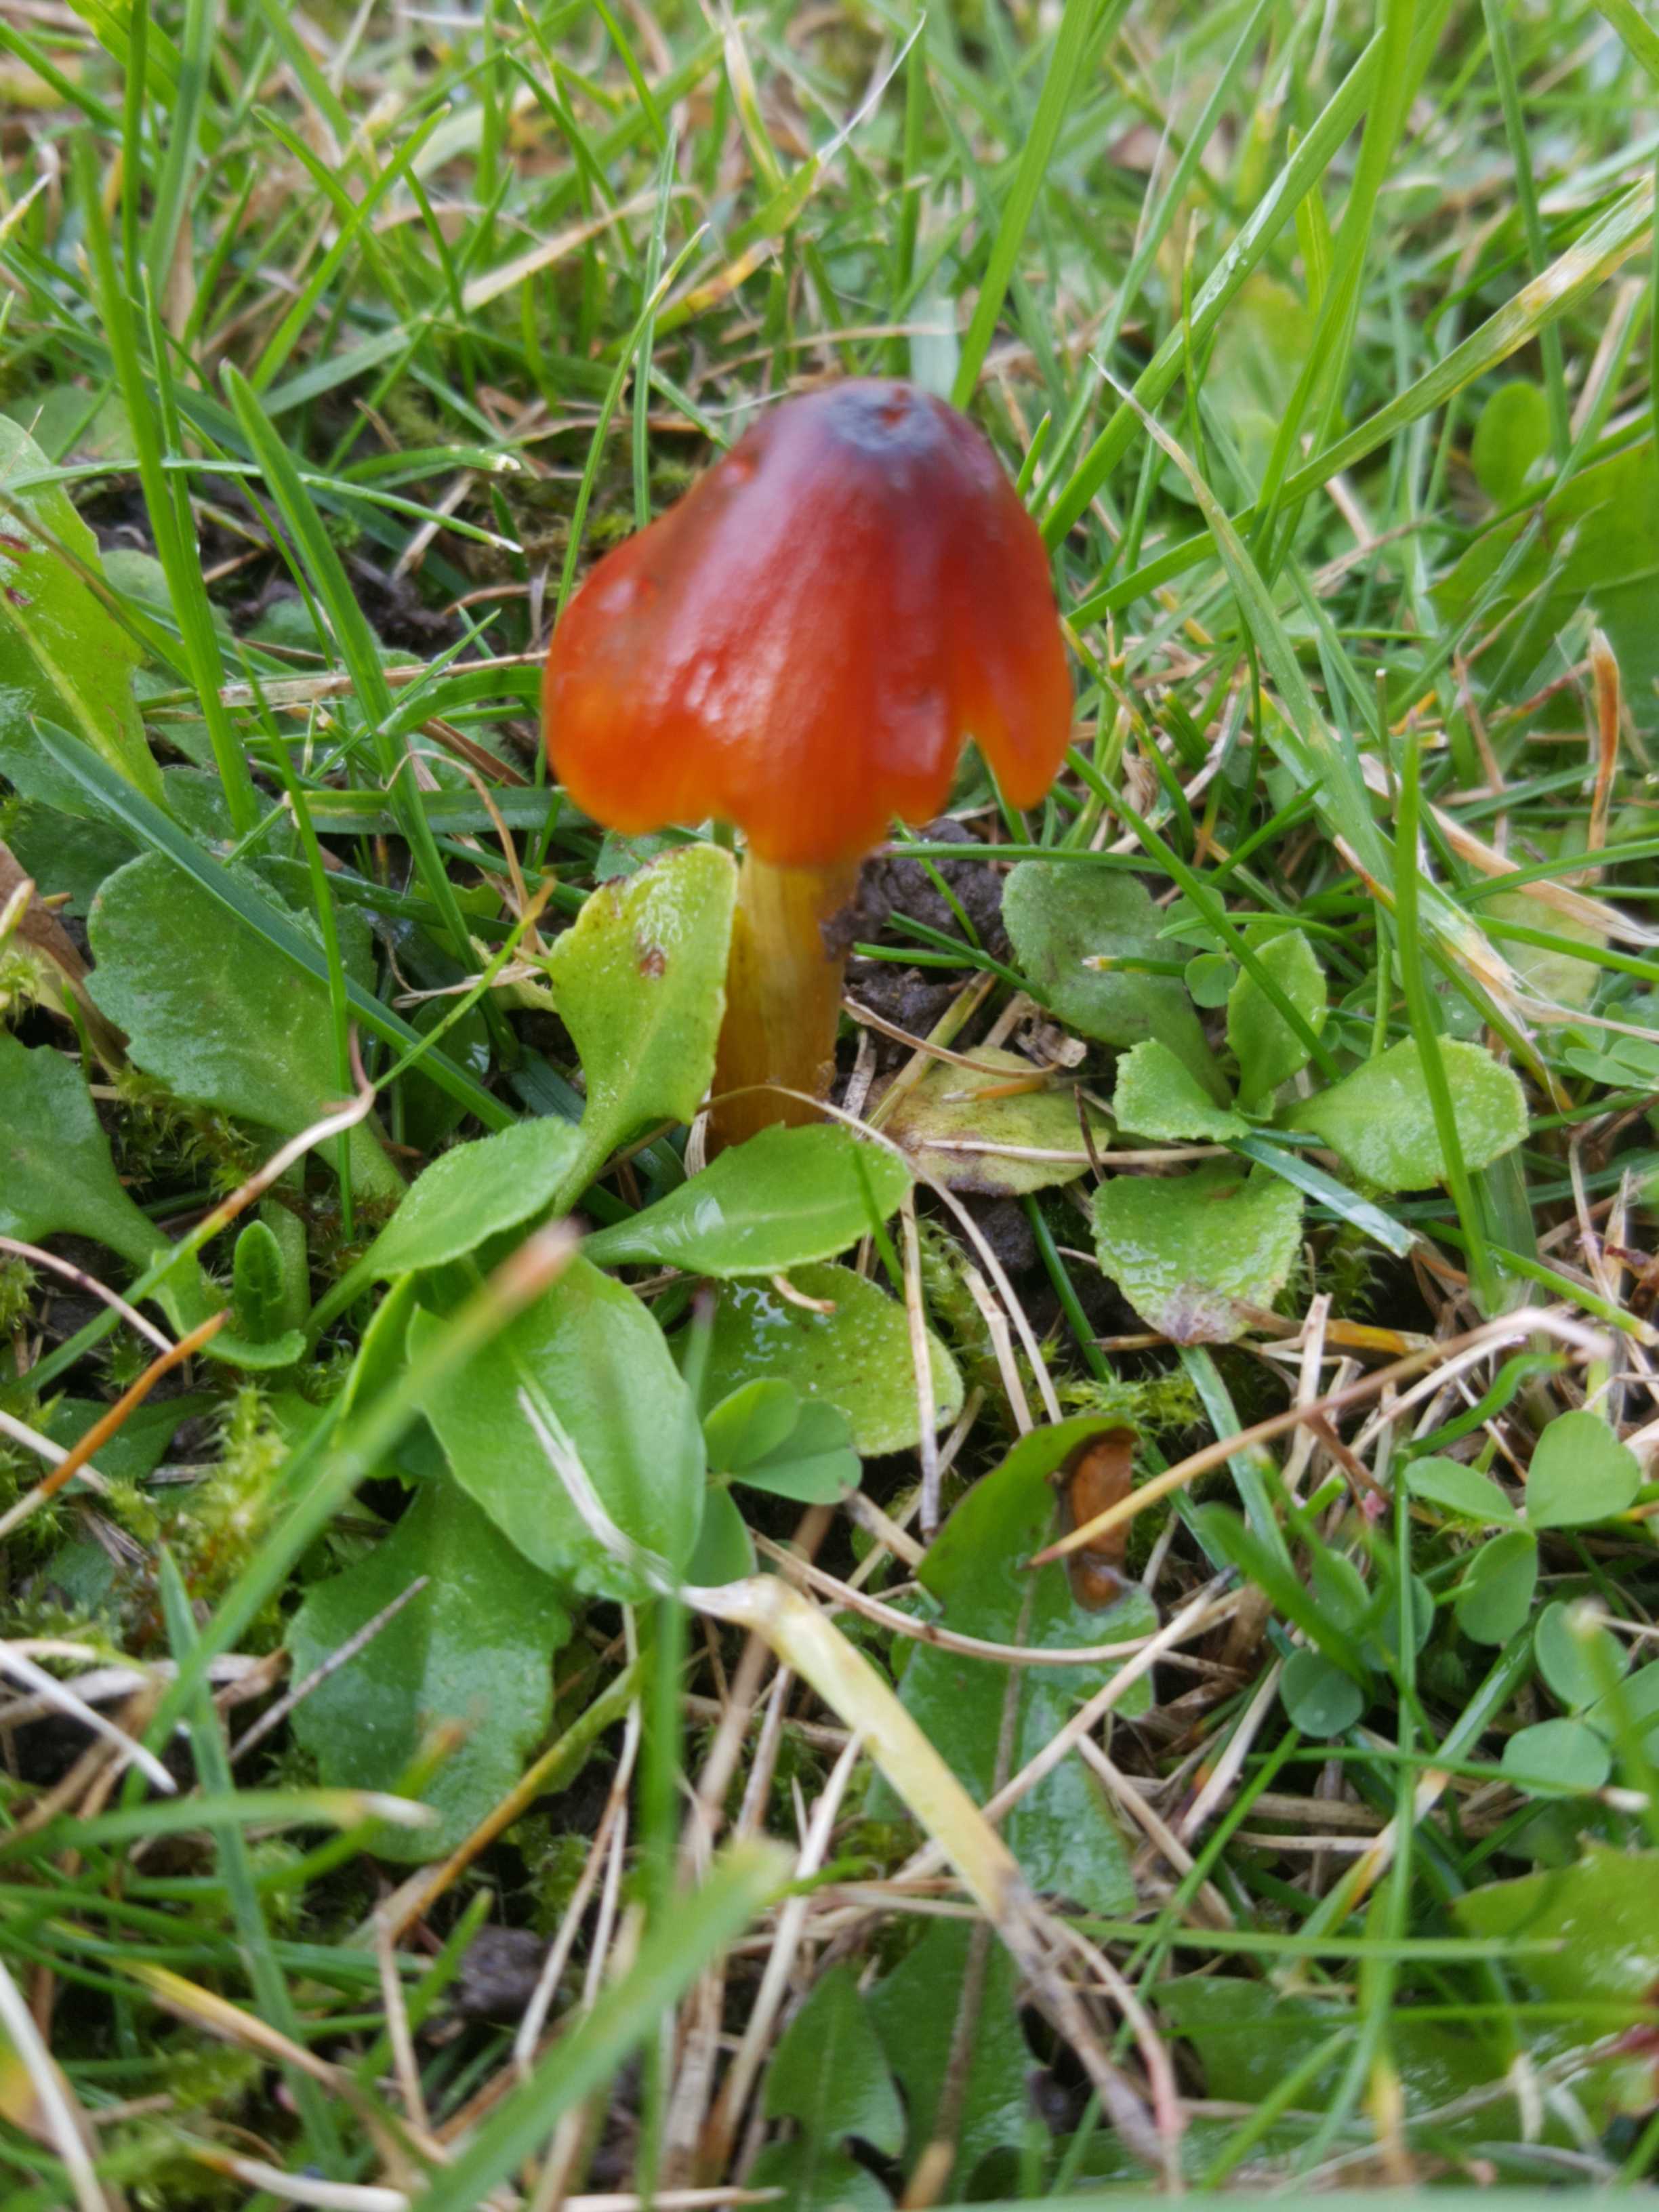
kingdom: Fungi
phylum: Basidiomycota
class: Agaricomycetes
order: Agaricales
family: Hygrophoraceae
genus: Hygrocybe
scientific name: Hygrocybe conica
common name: kegle-vokshat
